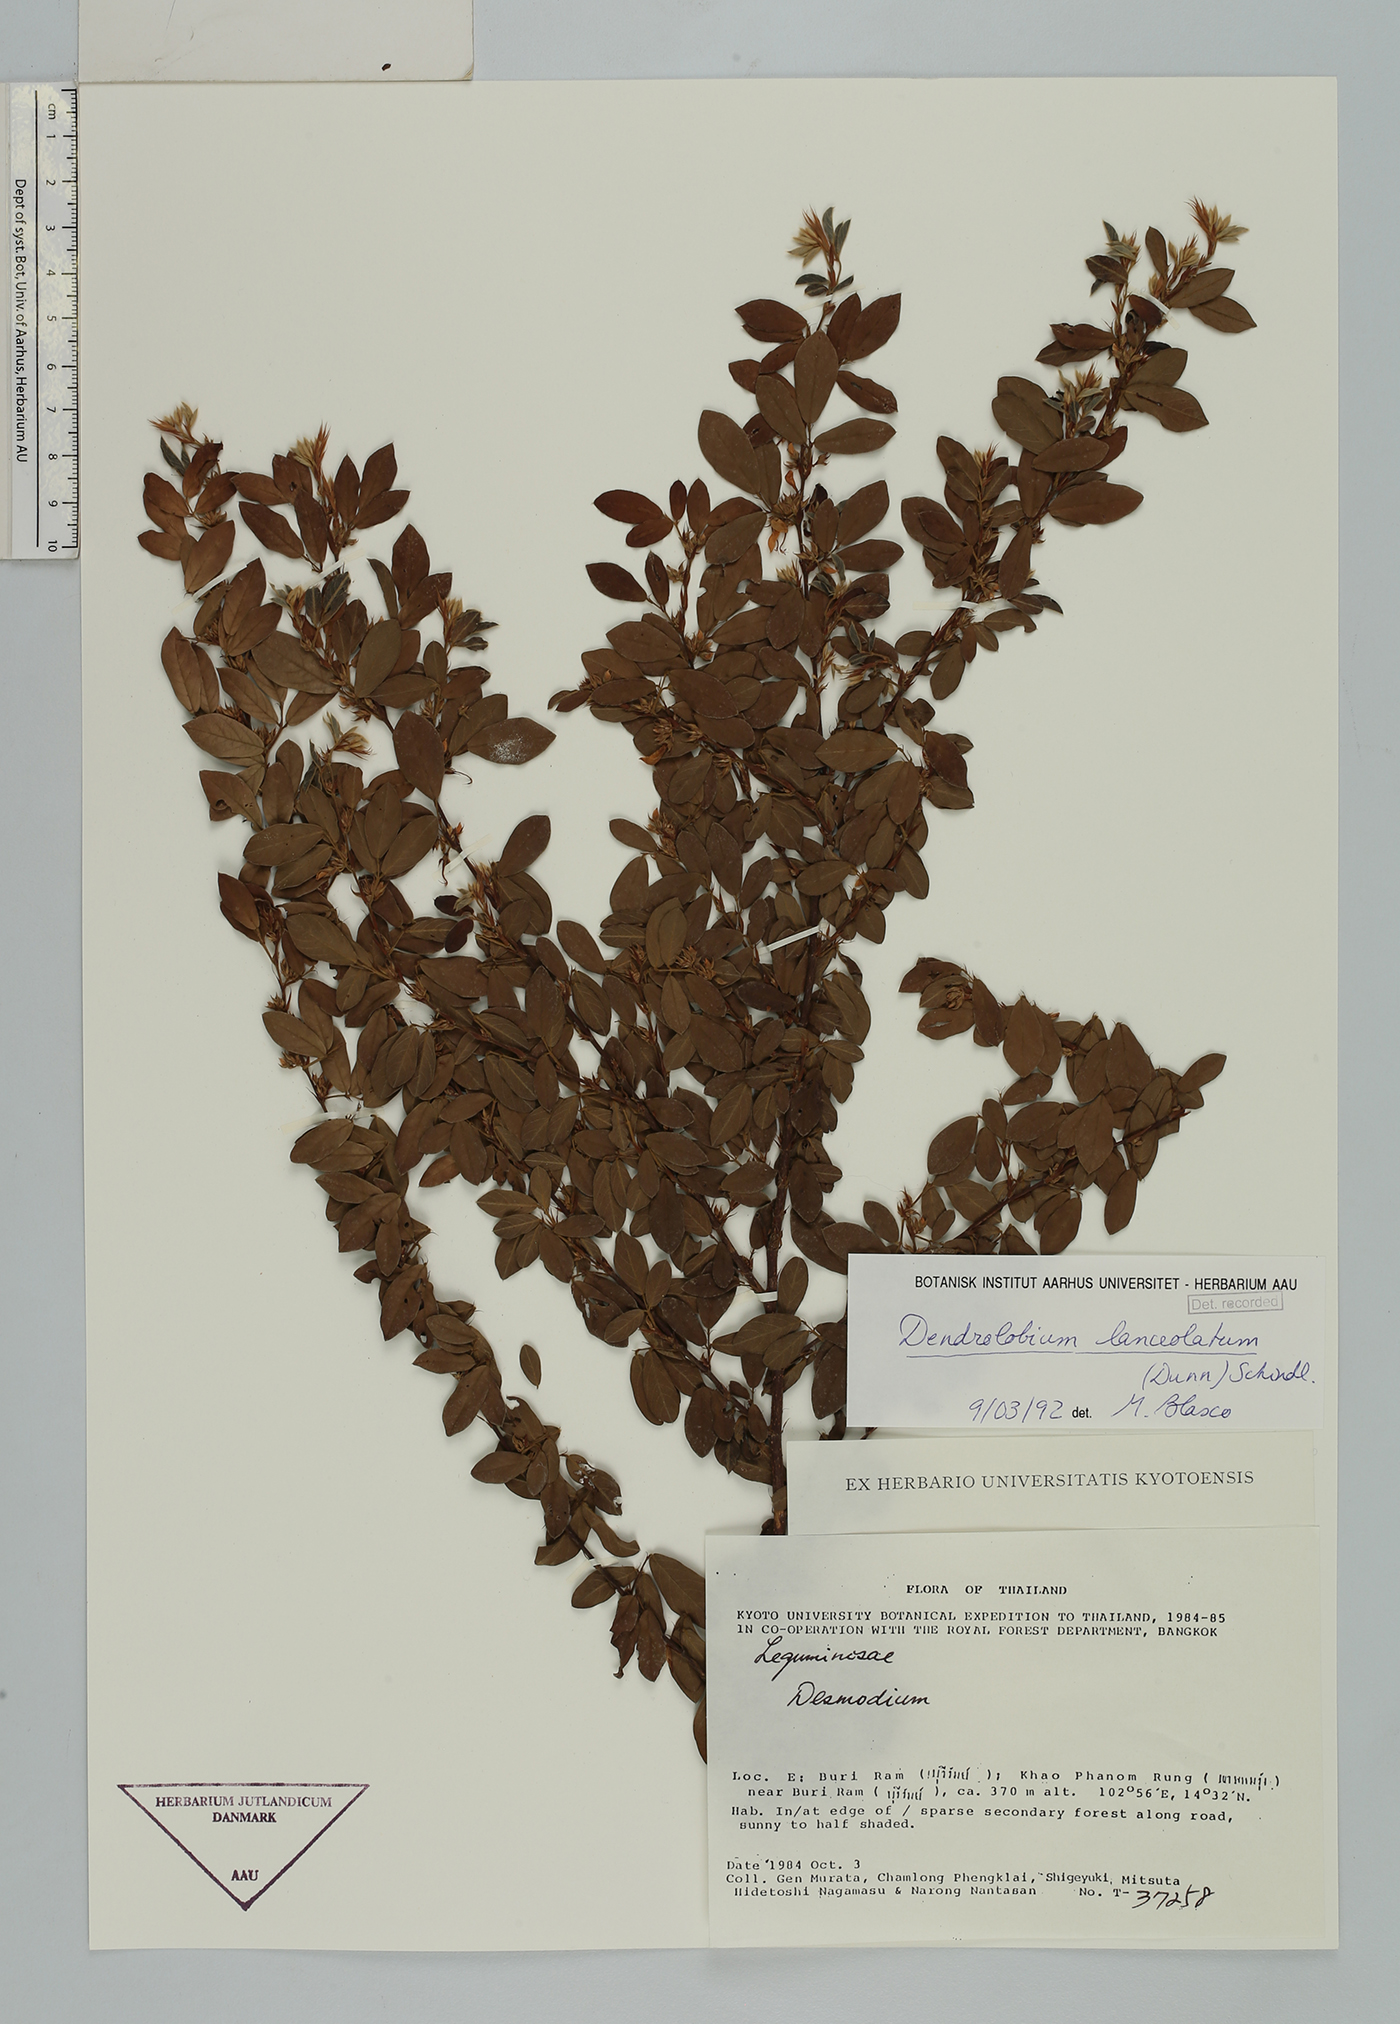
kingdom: Plantae
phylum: Tracheophyta
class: Magnoliopsida
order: Fabales
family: Fabaceae
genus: Dendrolobium
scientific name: Dendrolobium lanceolatum
